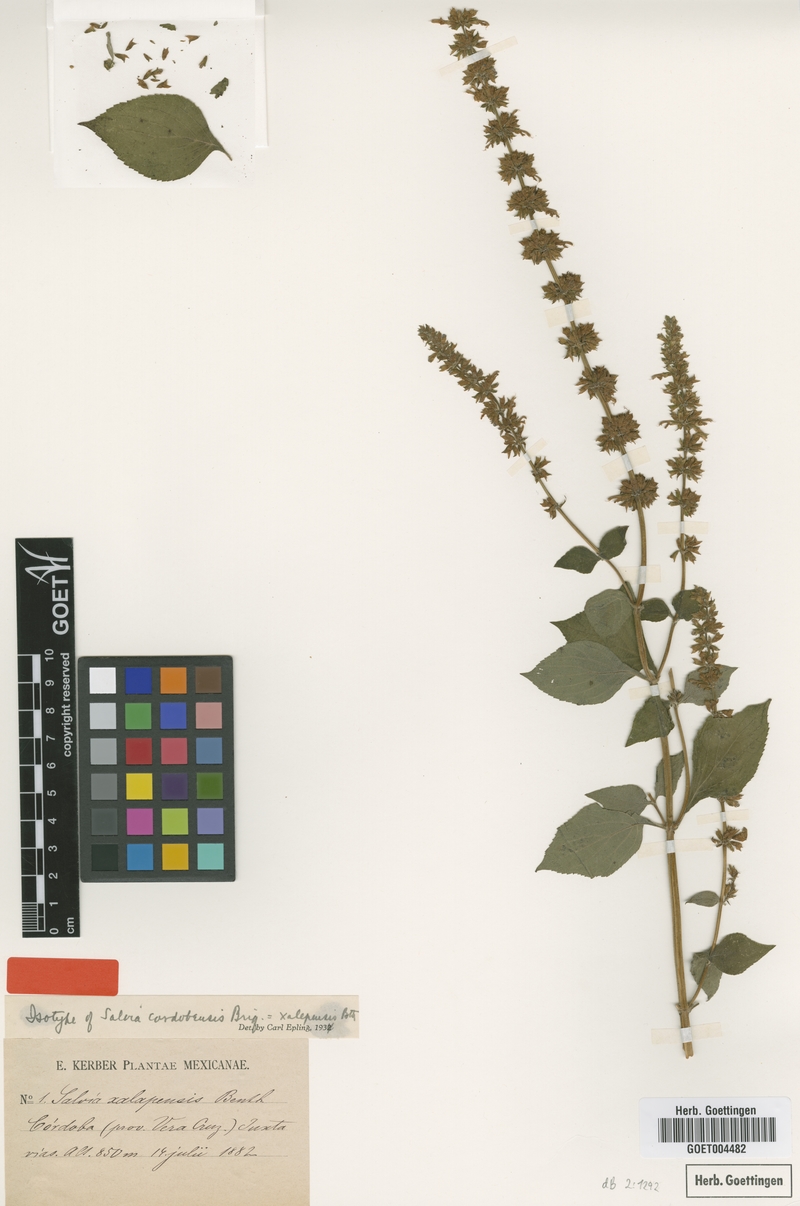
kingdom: Plantae
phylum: Tracheophyta
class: Magnoliopsida
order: Lamiales
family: Lamiaceae
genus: Salvia
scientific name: Salvia xalapensis
